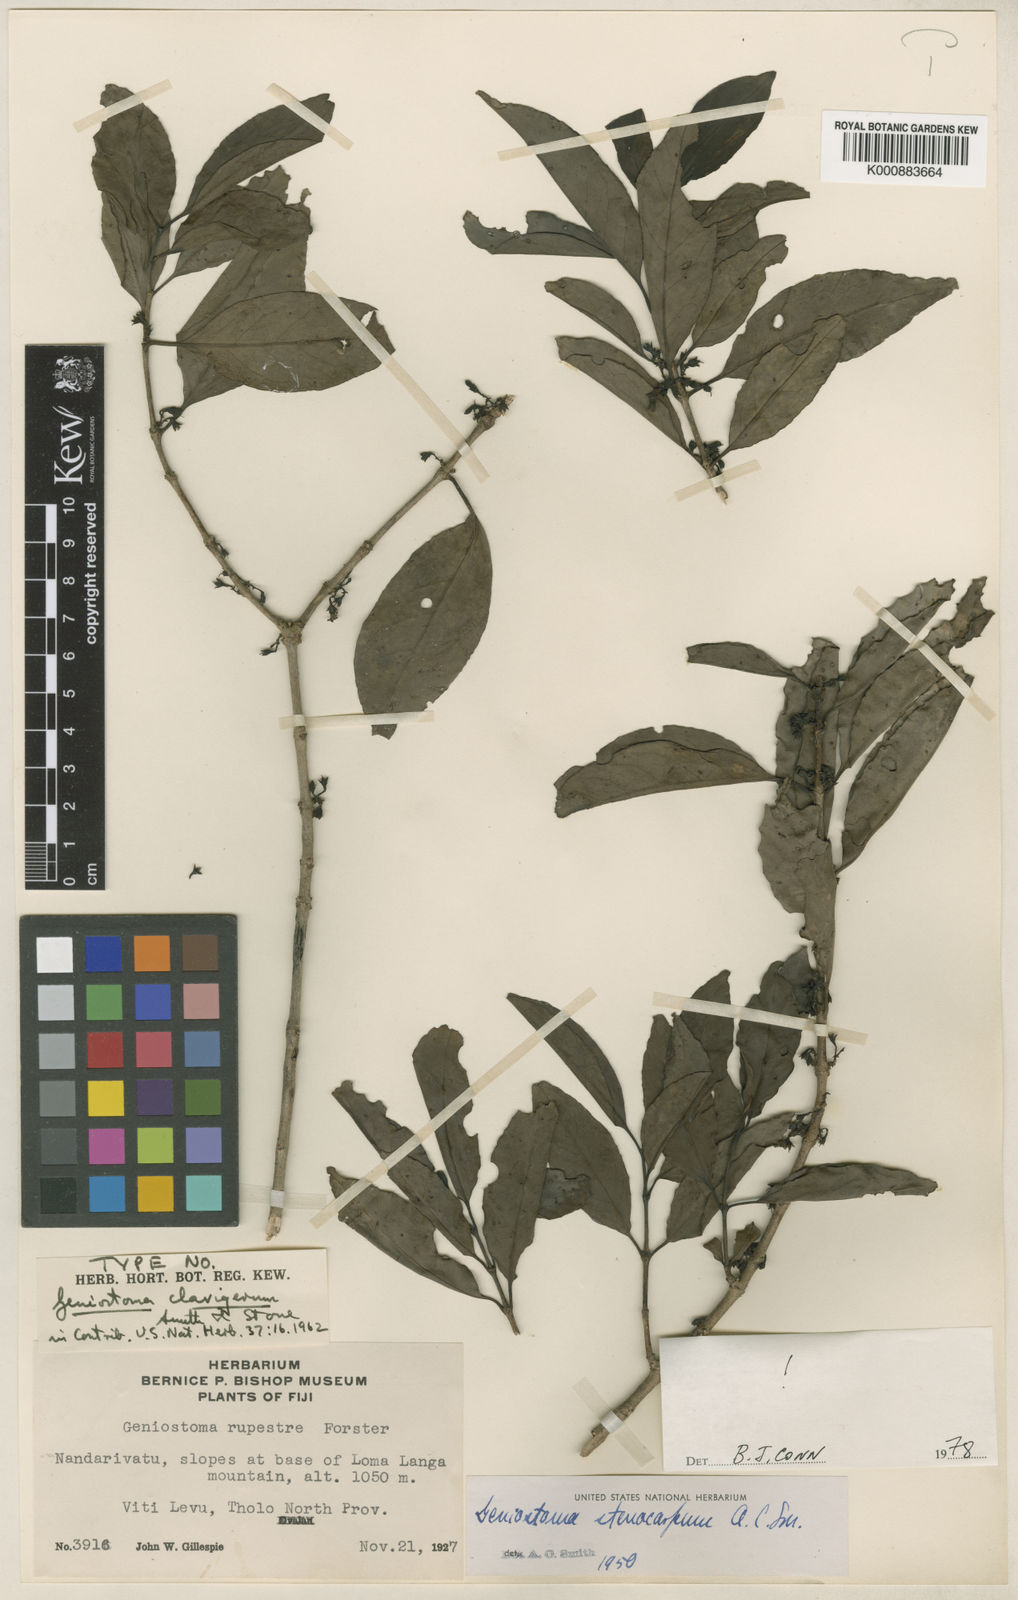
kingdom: Plantae
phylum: Tracheophyta
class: Magnoliopsida
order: Gentianales
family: Loganiaceae
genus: Geniostoma
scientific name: Geniostoma rupestre
